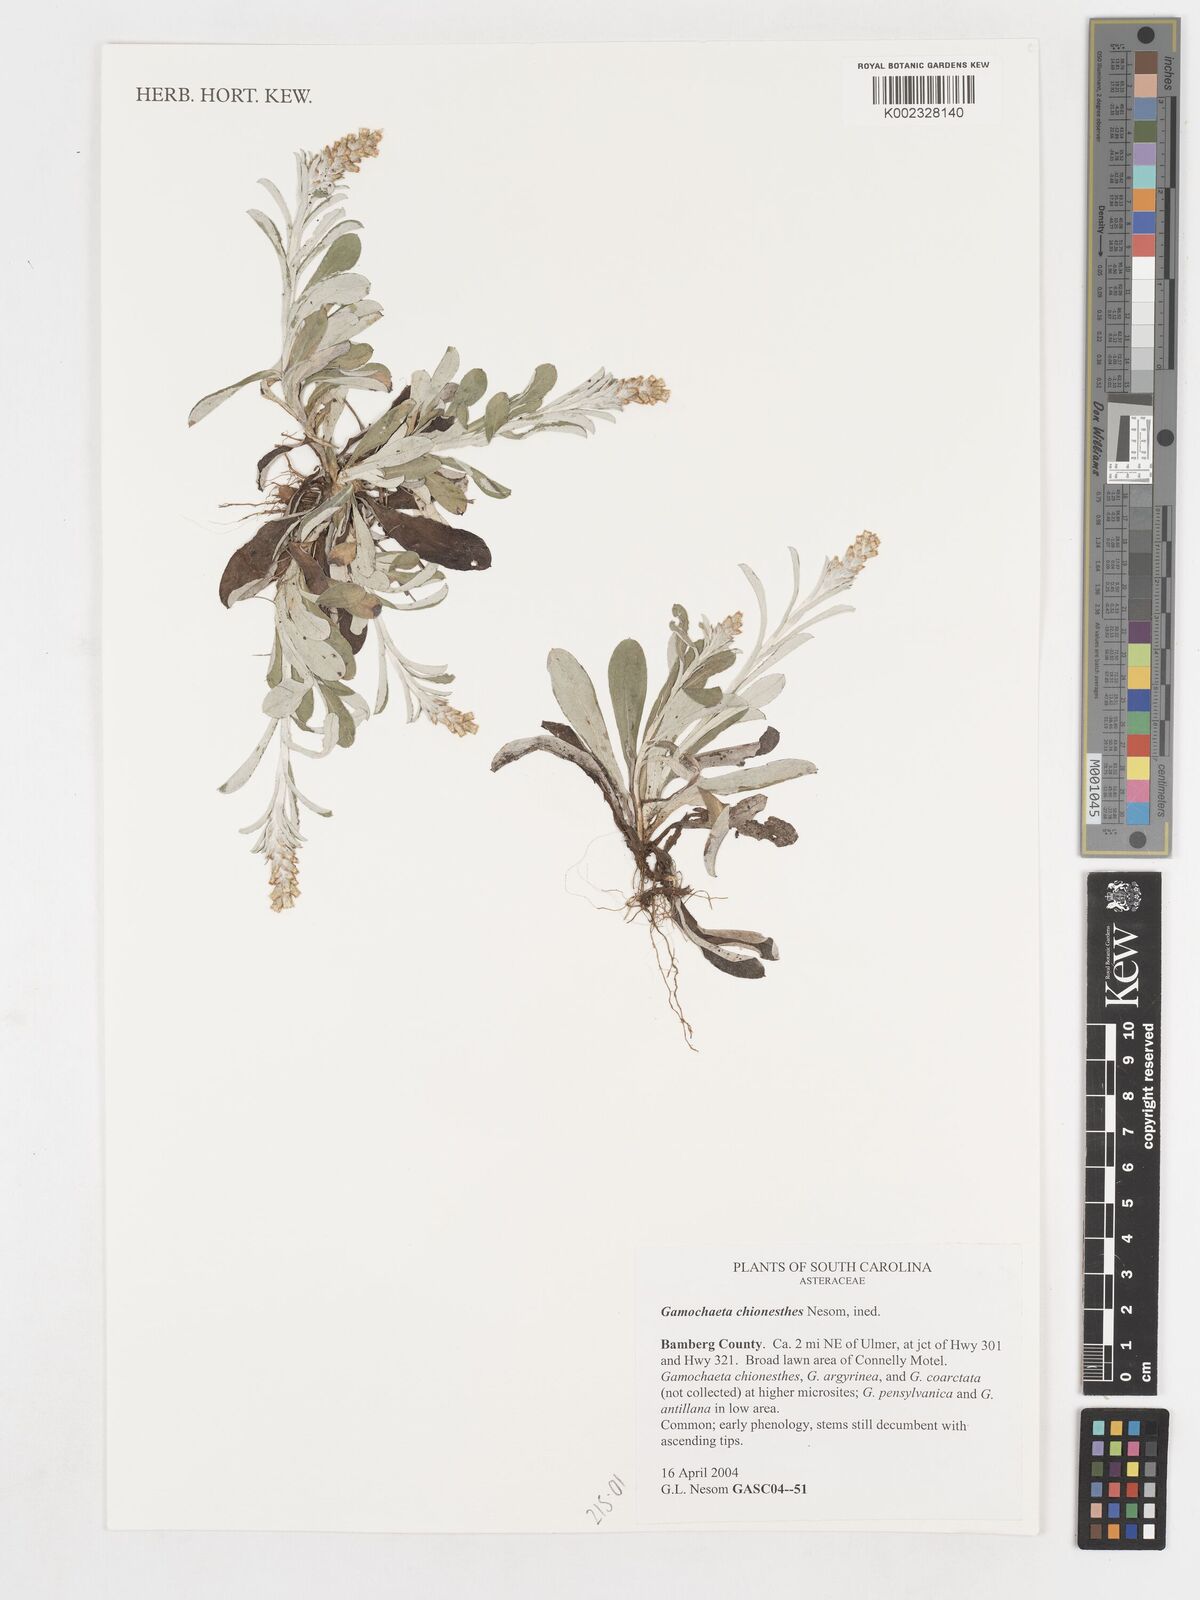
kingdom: Plantae
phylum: Tracheophyta
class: Magnoliopsida
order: Asterales
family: Asteraceae
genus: Gamochaeta
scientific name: Gamochaeta chionesthes
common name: Gray everlasting
